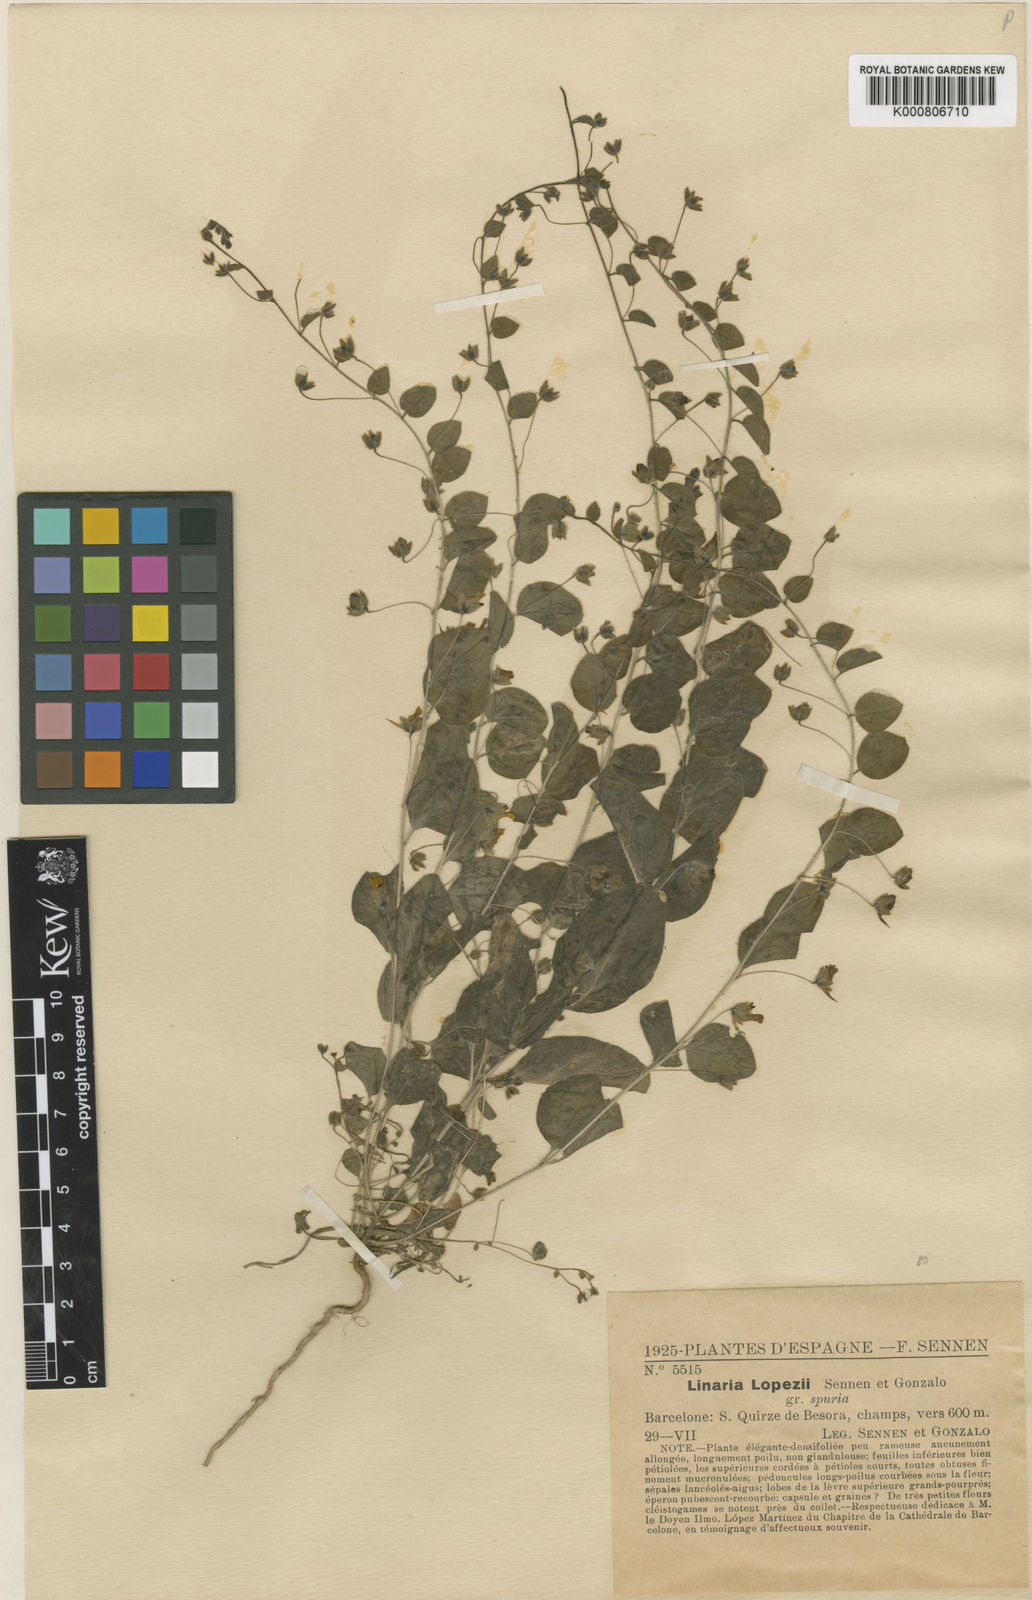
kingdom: Plantae
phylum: Tracheophyta
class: Magnoliopsida
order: Lamiales
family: Plantaginaceae
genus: Kickxia
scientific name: Kickxia spuria
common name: Round-leaved fluellen
